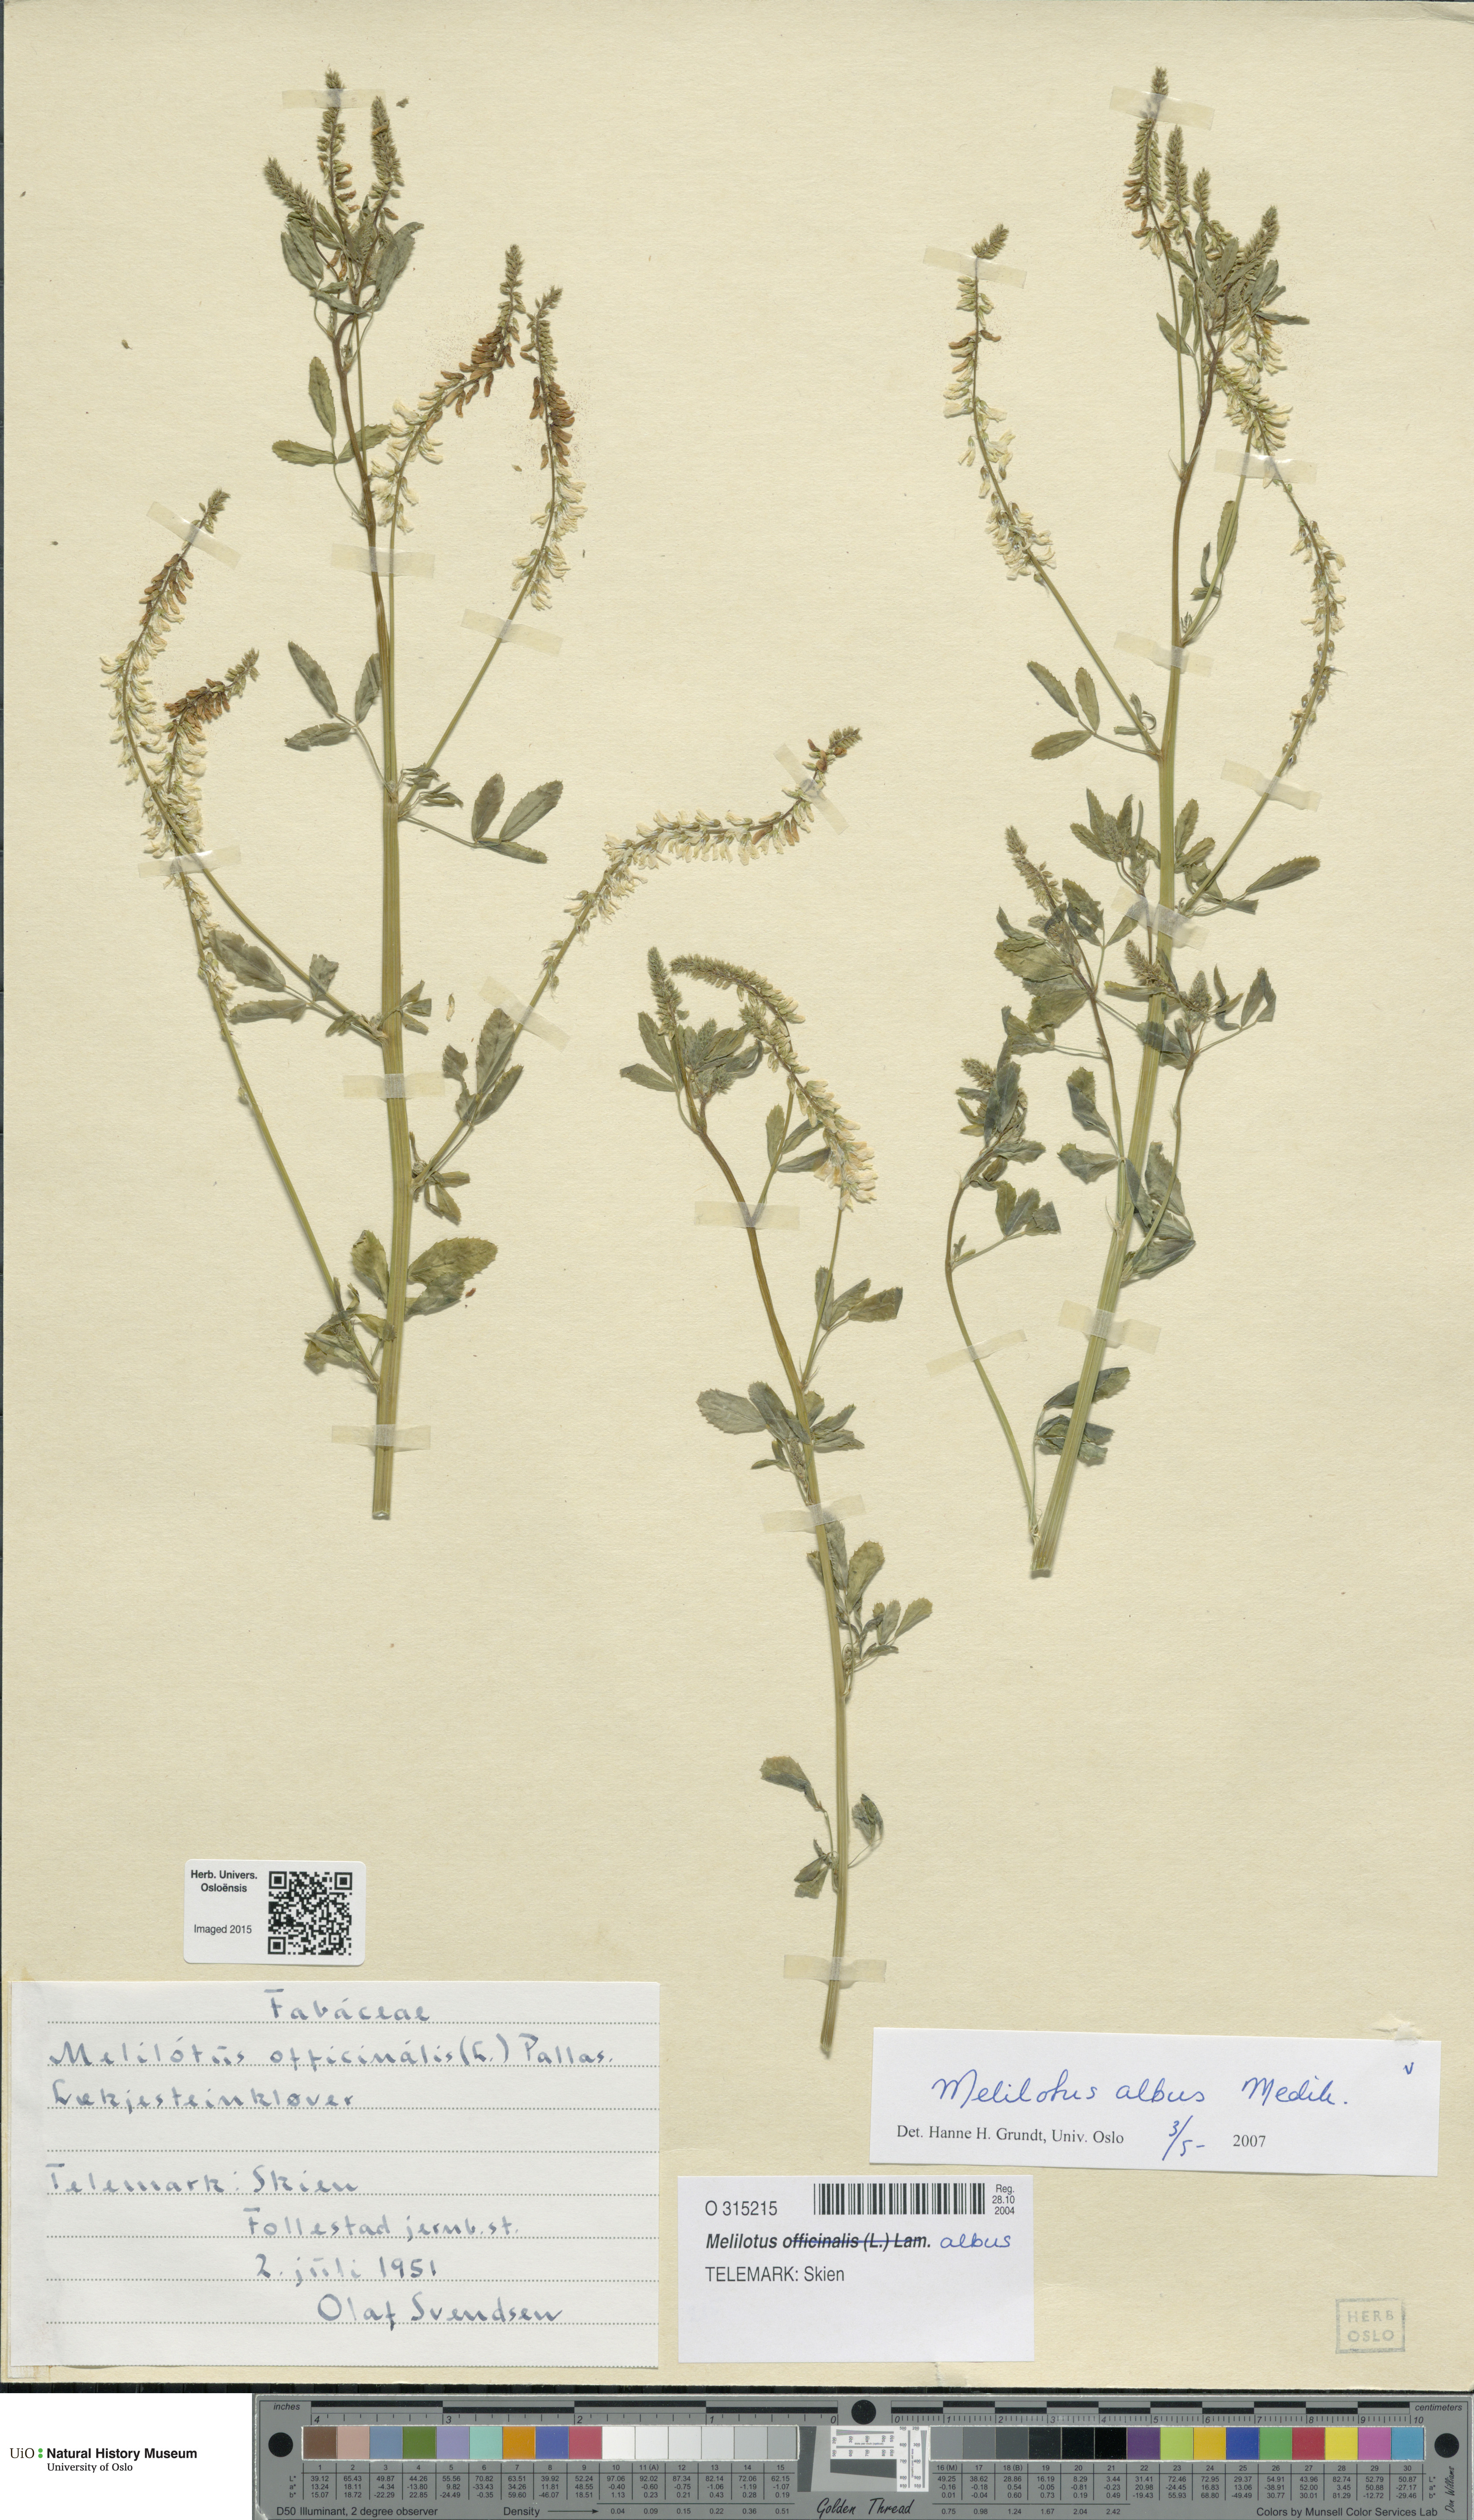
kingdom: Plantae
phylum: Tracheophyta
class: Magnoliopsida
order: Fabales
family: Fabaceae
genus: Melilotus
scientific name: Melilotus albus
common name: White melilot
